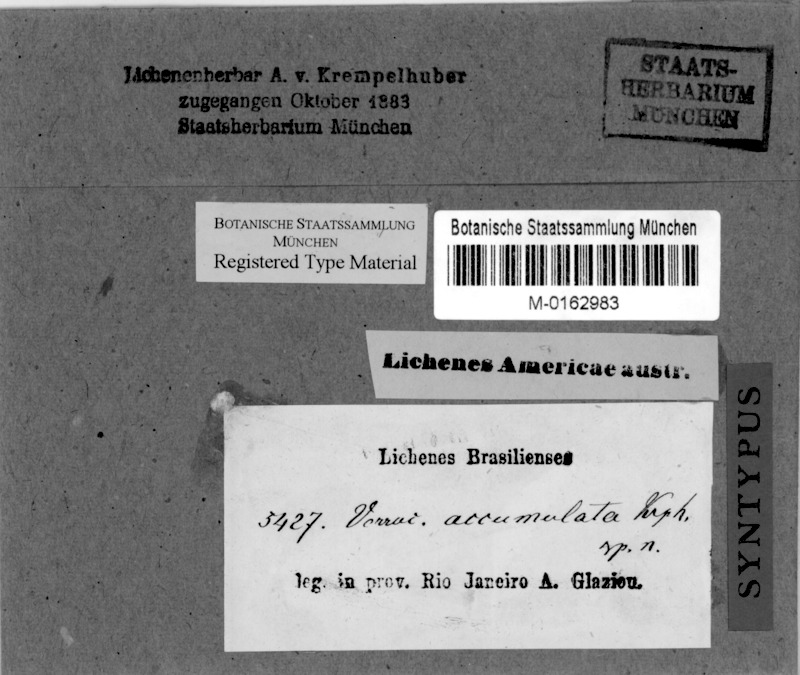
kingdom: Fungi
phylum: Ascomycota
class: Dothideomycetes
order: Pleosporales
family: Naetrocymbaceae
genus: Tomasellia
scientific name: Tomasellia
